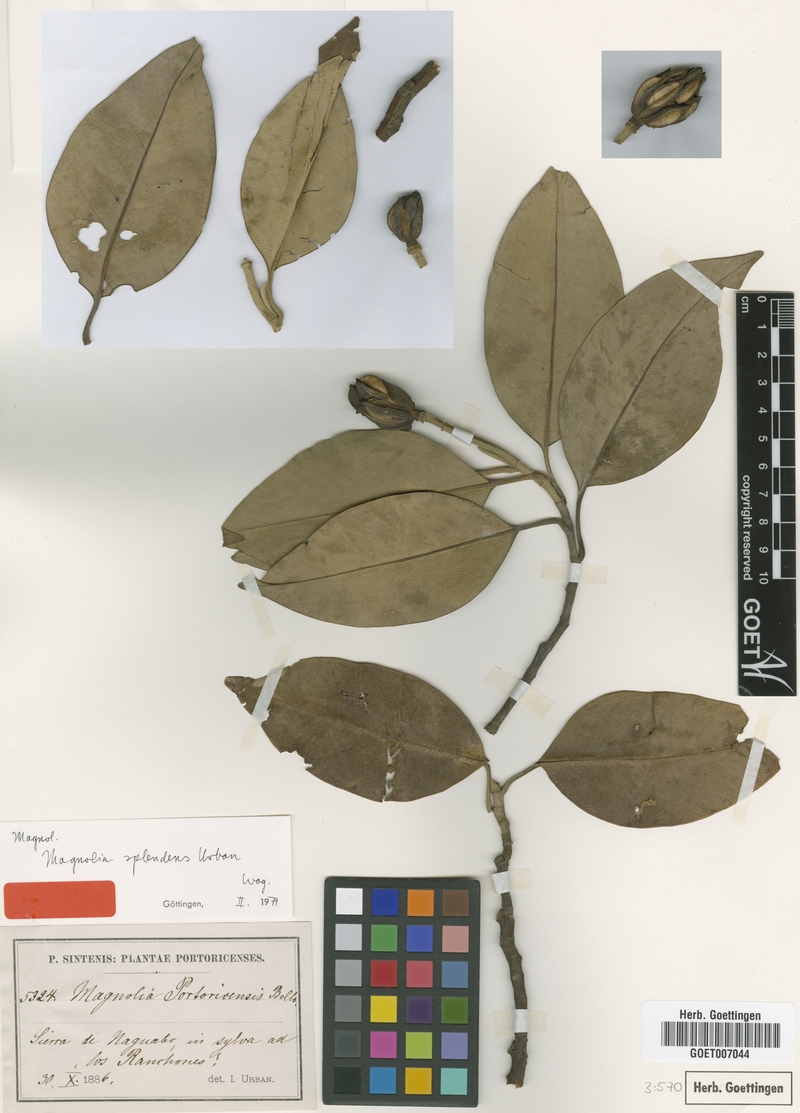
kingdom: Plantae
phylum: Tracheophyta
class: Magnoliopsida
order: Magnoliales
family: Magnoliaceae
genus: Magnolia
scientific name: Magnolia splendens
